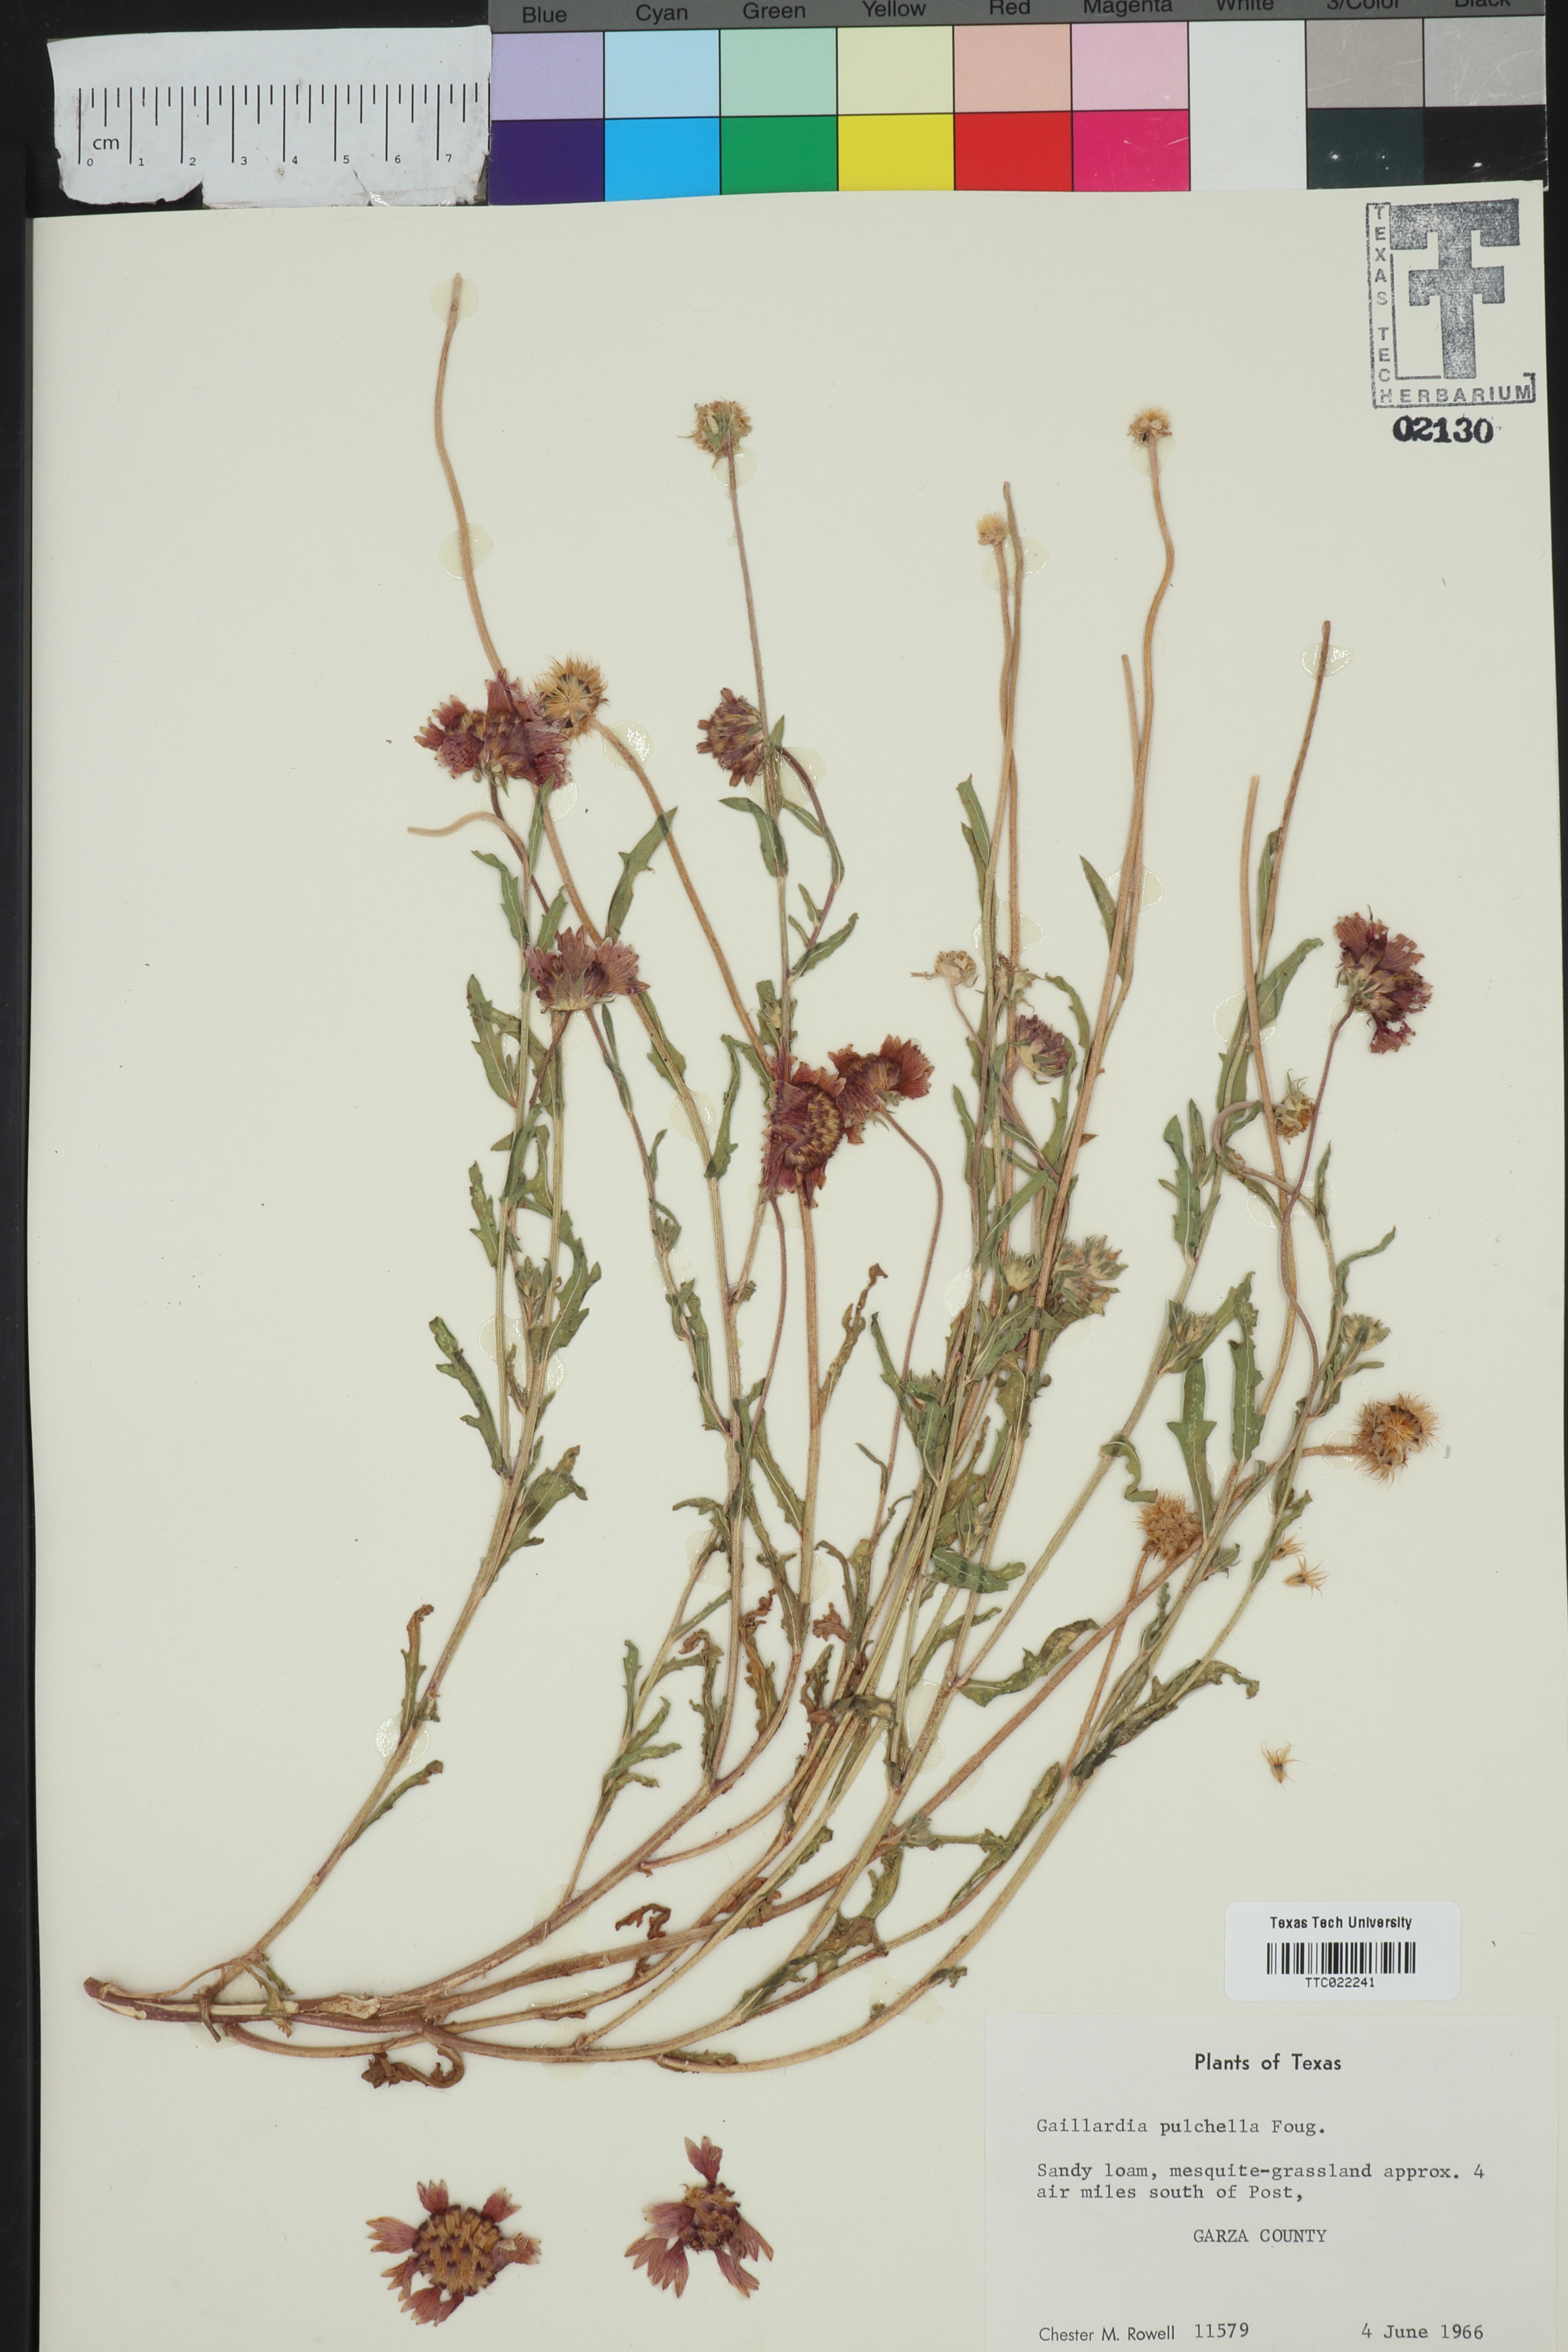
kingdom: Plantae
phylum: Tracheophyta
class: Magnoliopsida
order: Asterales
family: Asteraceae
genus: Gaillardia
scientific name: Gaillardia pulchella
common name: Firewheel
